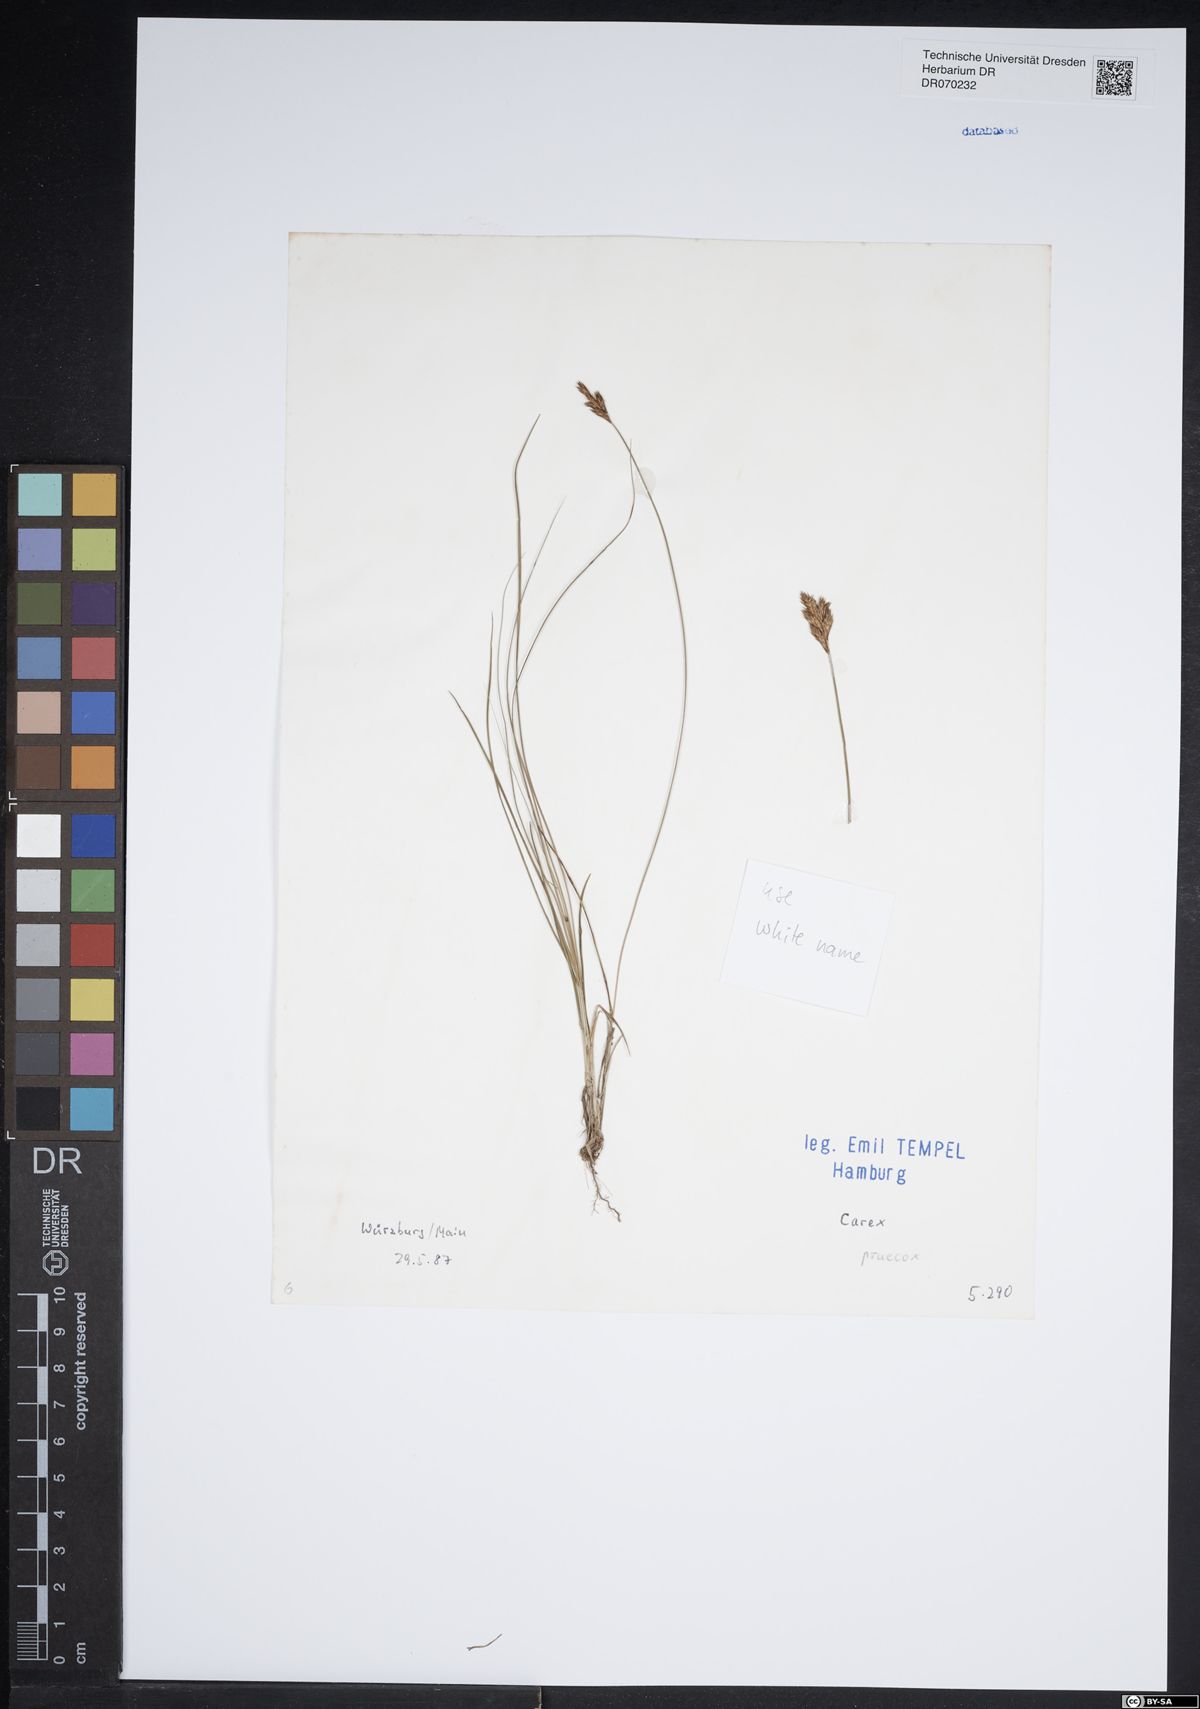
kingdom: Plantae
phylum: Tracheophyta
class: Liliopsida
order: Poales
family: Cyperaceae
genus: Carex
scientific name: Carex praecox
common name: Early sedge
